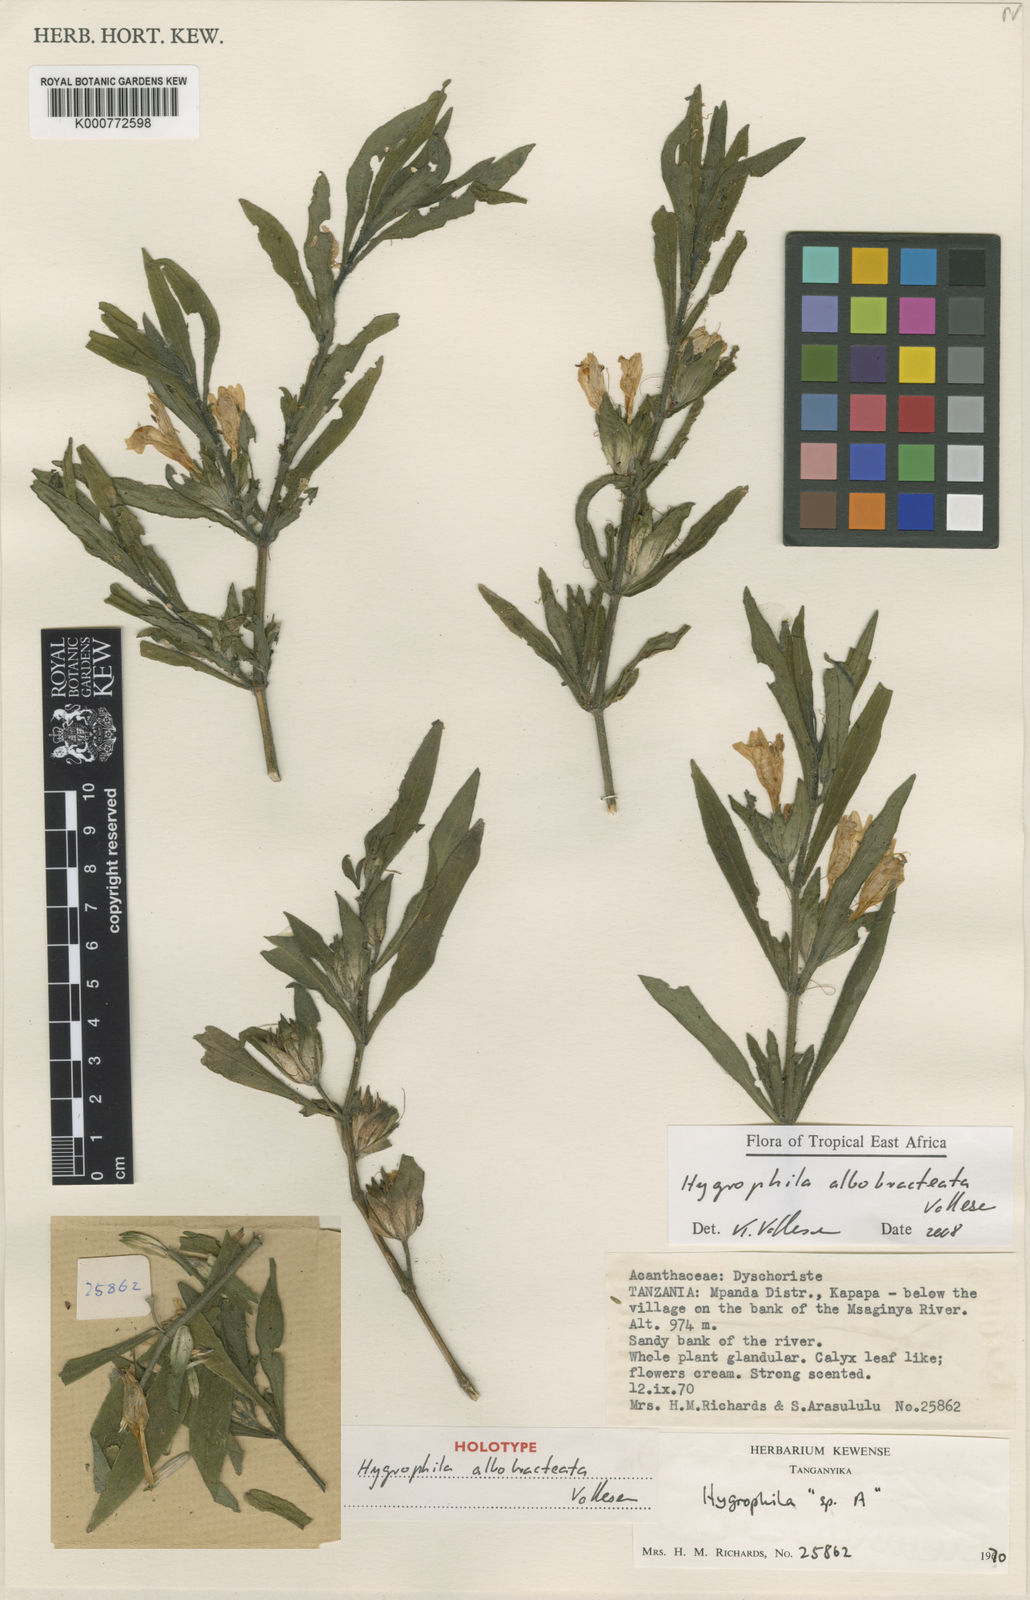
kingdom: Plantae
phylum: Tracheophyta
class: Magnoliopsida
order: Lamiales
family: Acanthaceae
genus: Hygrophila
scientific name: Hygrophila albobracteata
